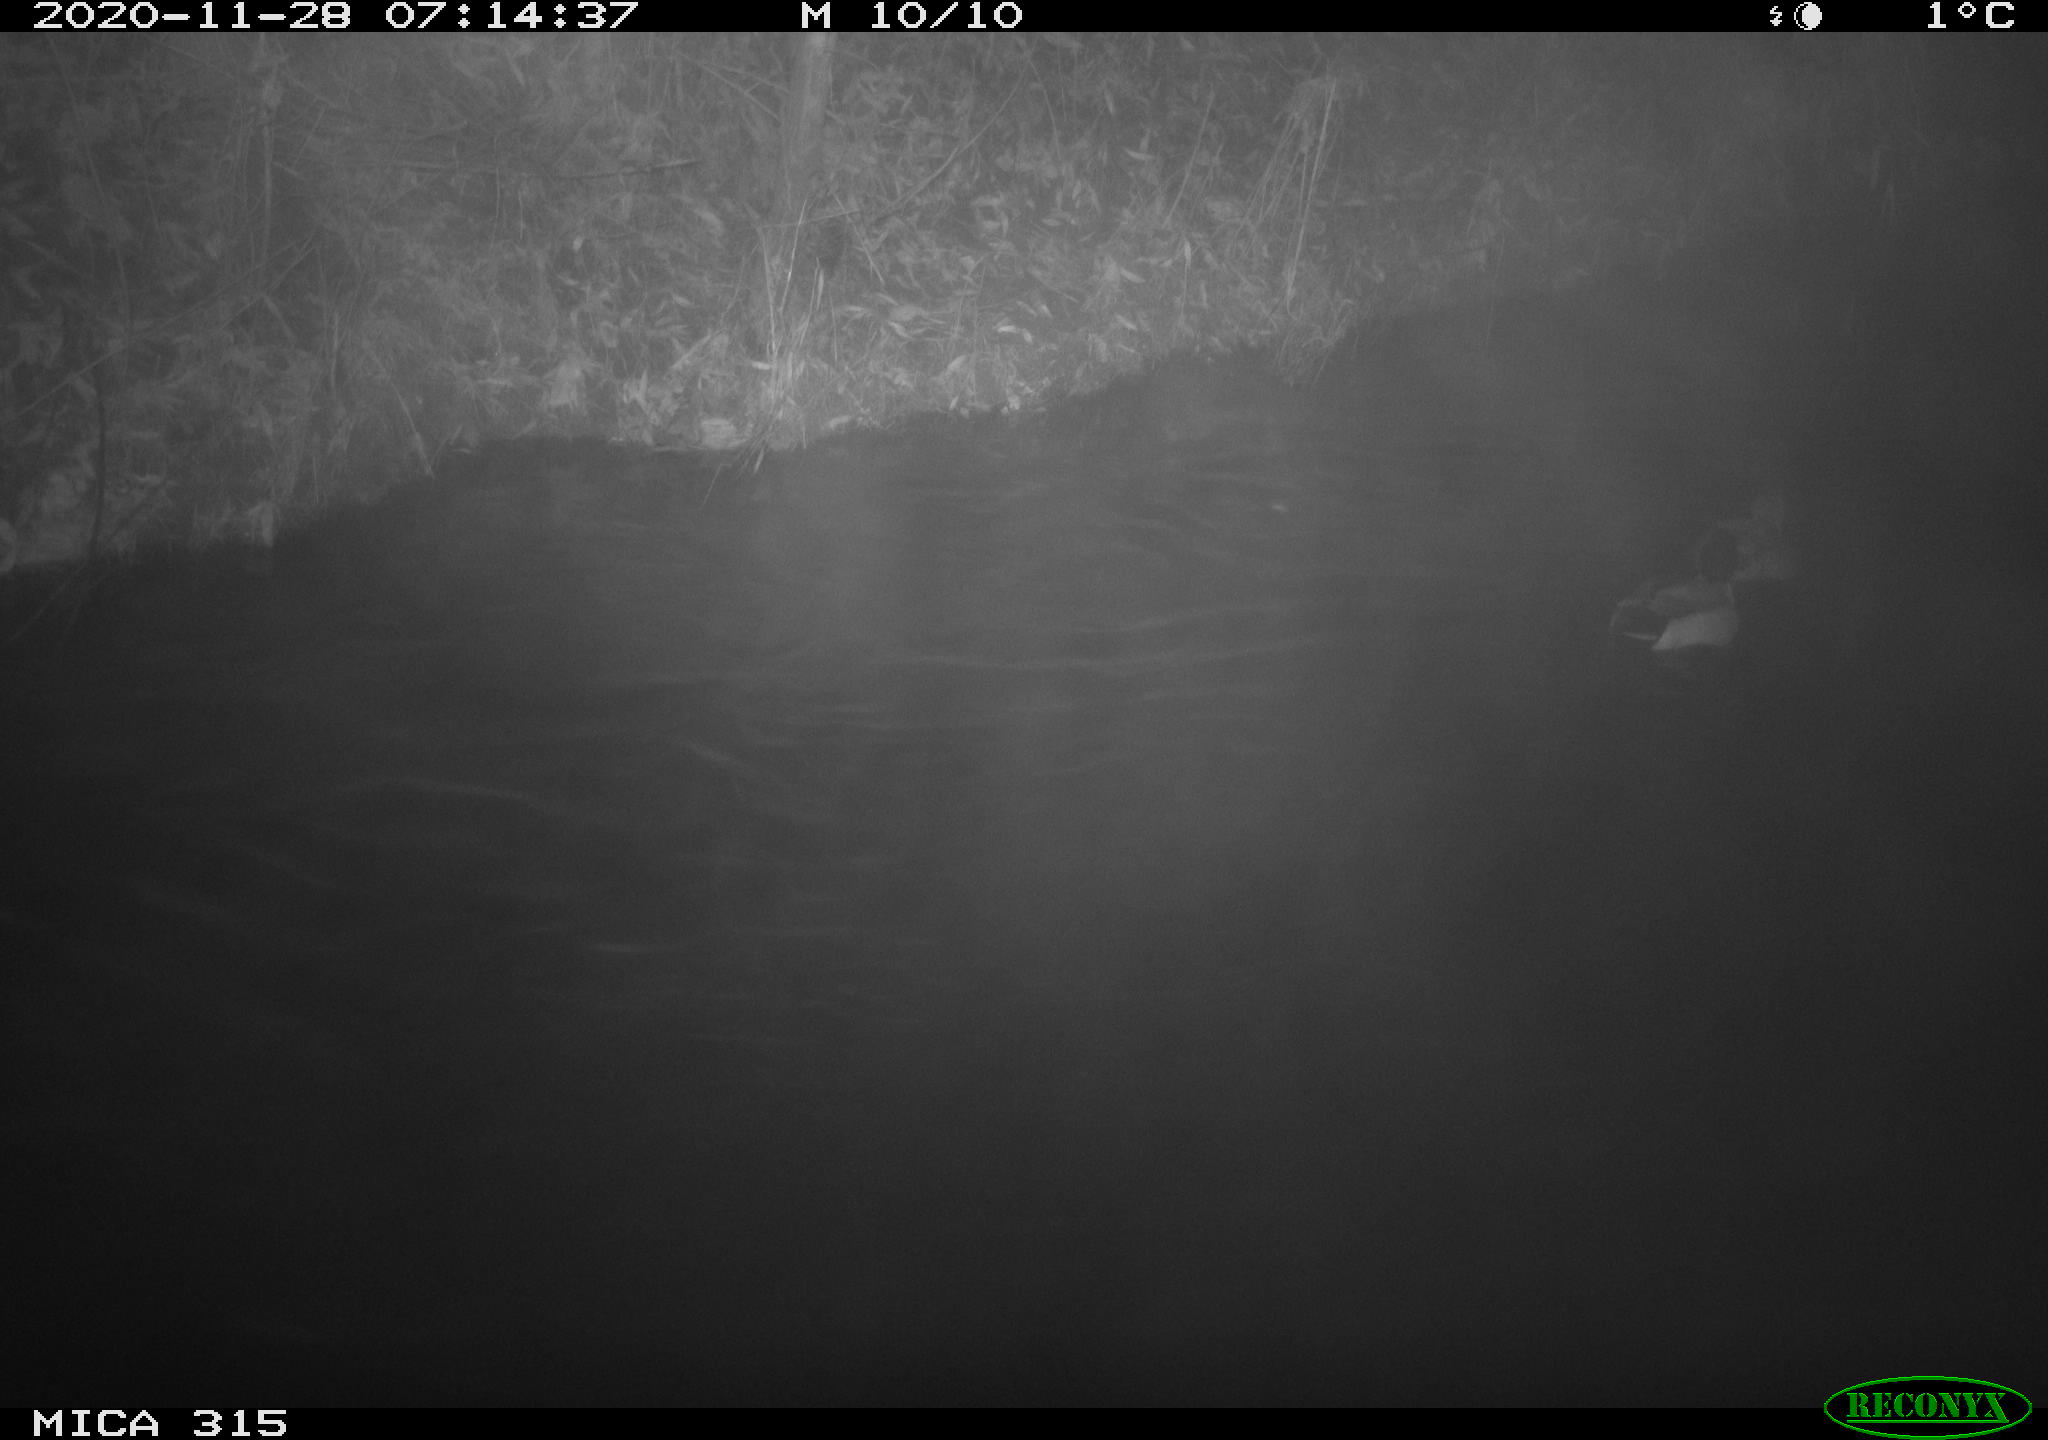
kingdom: Animalia
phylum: Chordata
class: Aves
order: Anseriformes
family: Anatidae
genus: Anas
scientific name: Anas platyrhynchos
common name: Mallard
